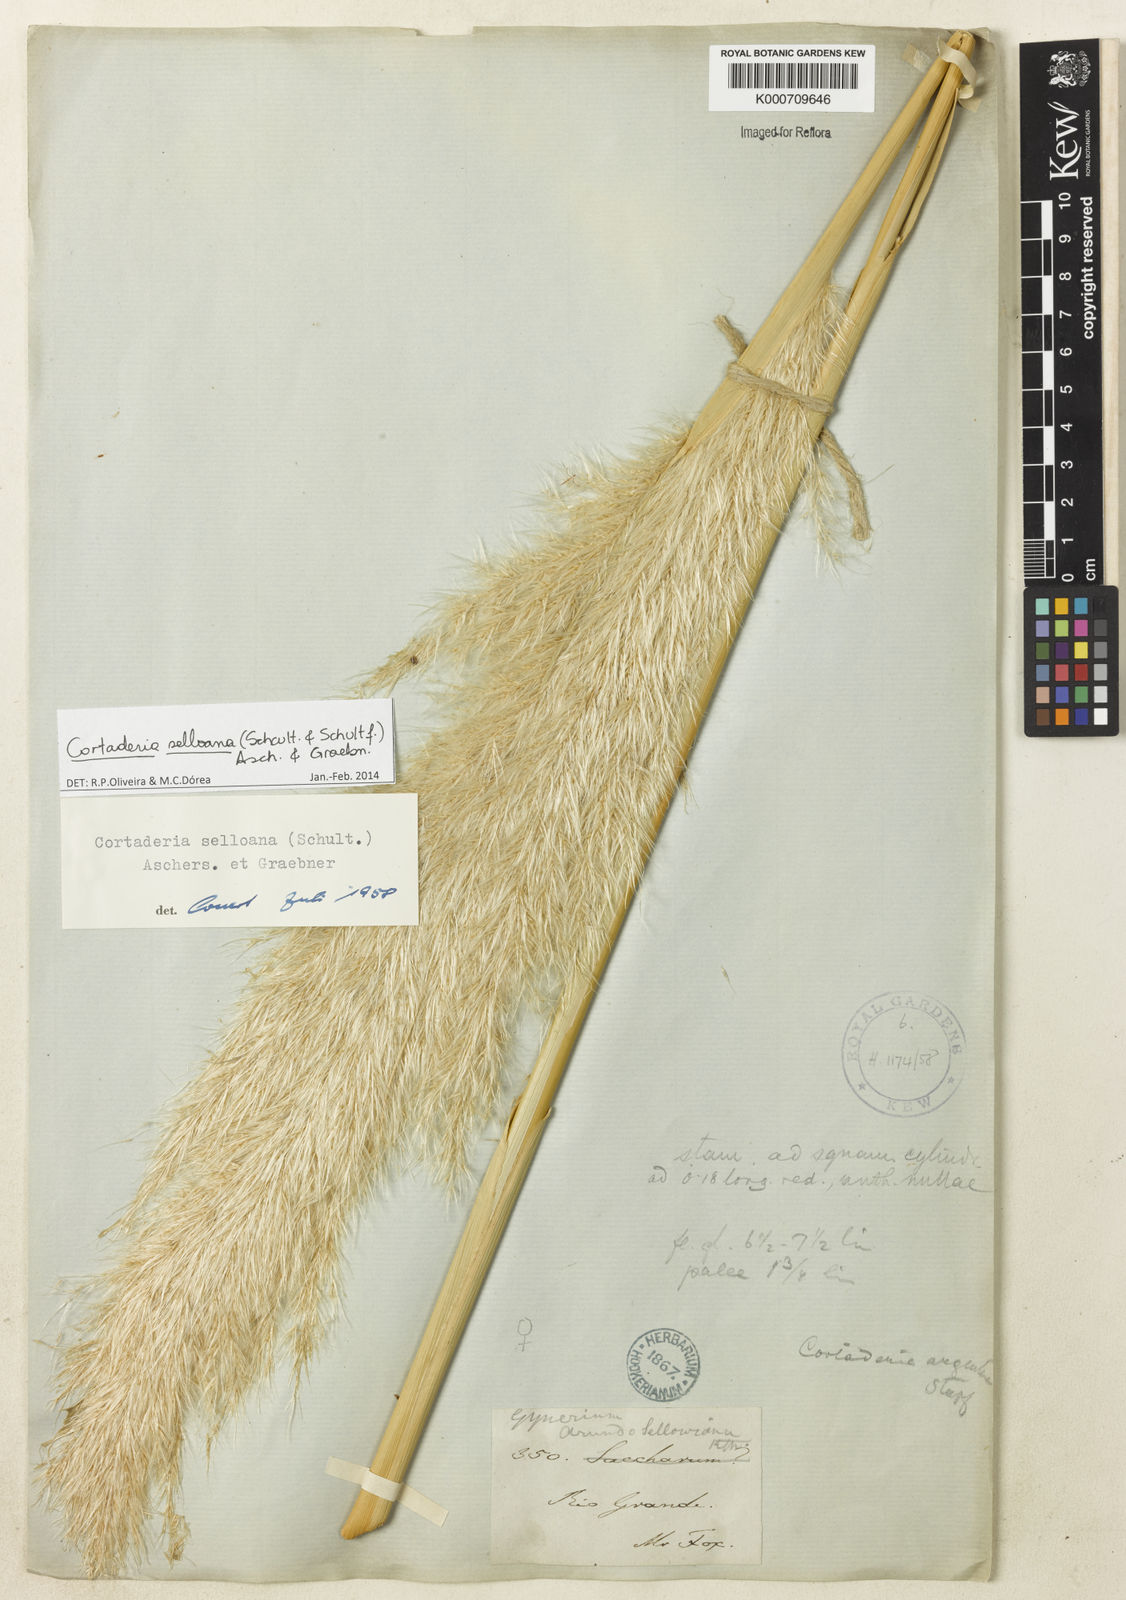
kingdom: Plantae
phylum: Tracheophyta
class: Liliopsida
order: Poales
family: Poaceae
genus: Cortaderia
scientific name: Cortaderia selloana
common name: Uruguayan pampas grass
